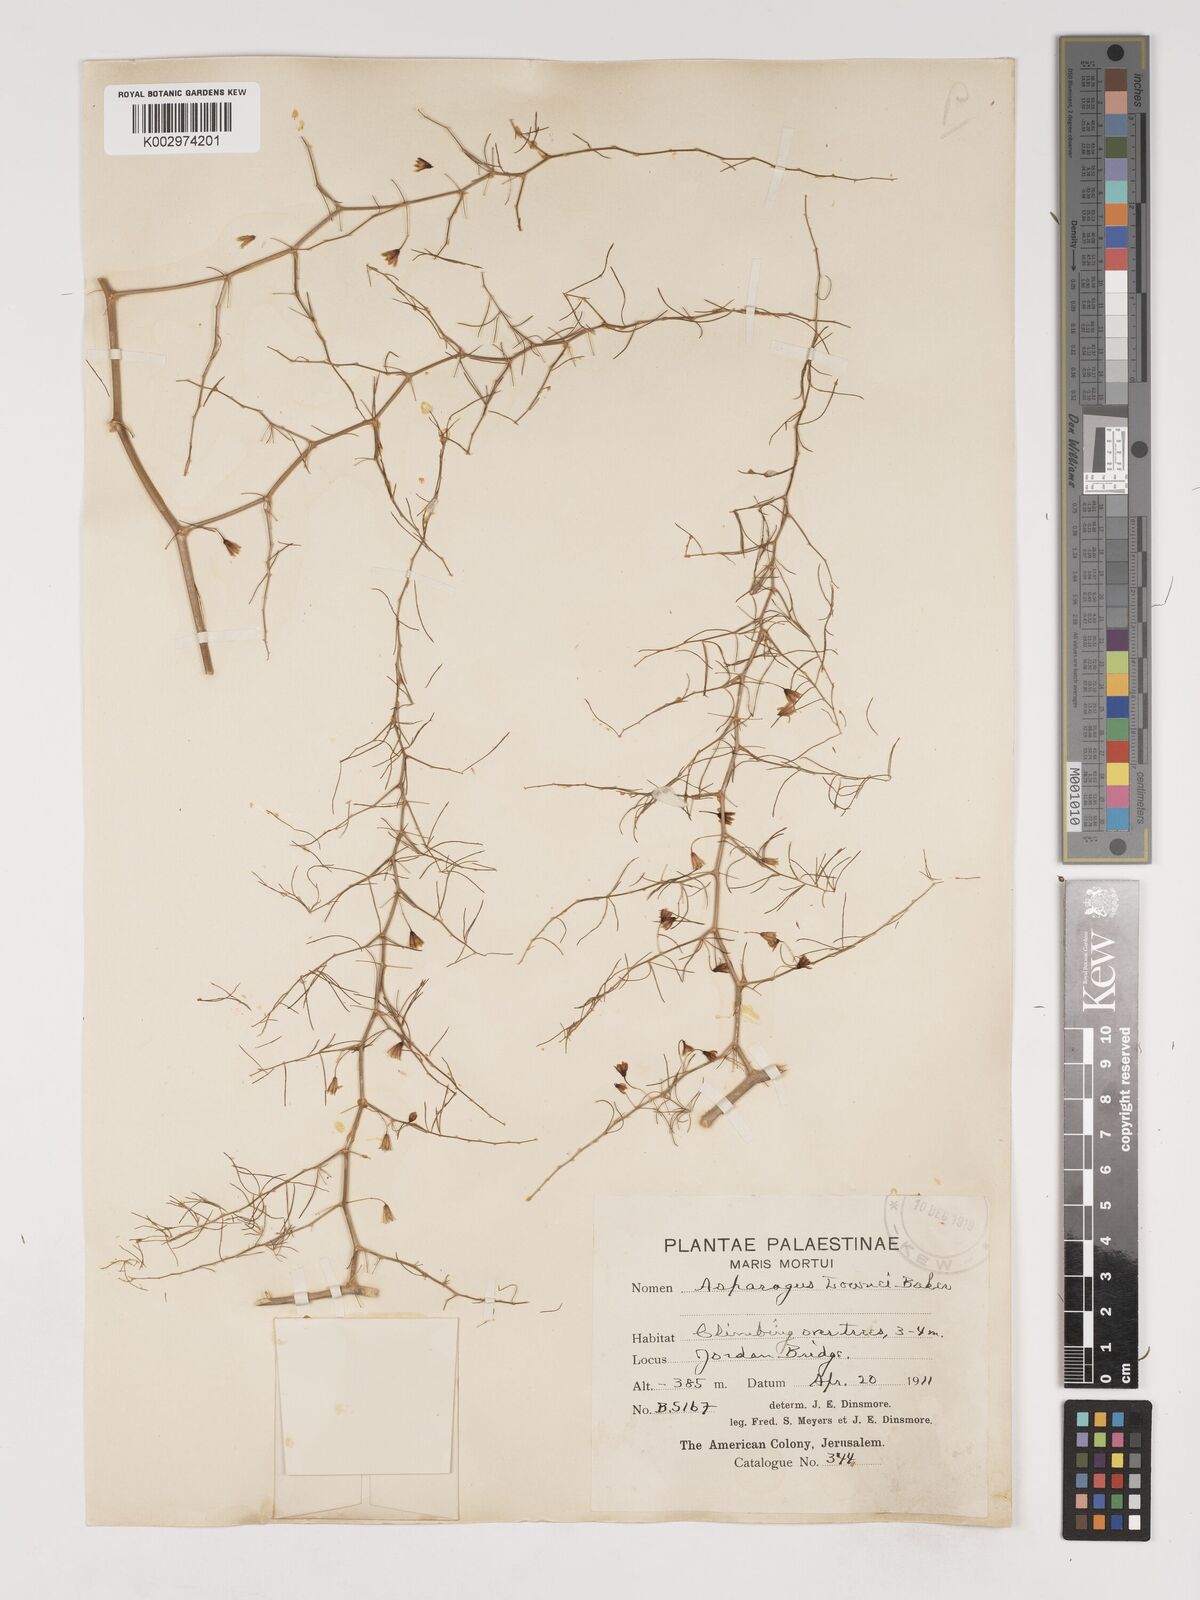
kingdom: Plantae
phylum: Tracheophyta
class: Liliopsida
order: Asparagales
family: Asparagaceae
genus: Asparagus
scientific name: Asparagus palaestinus
